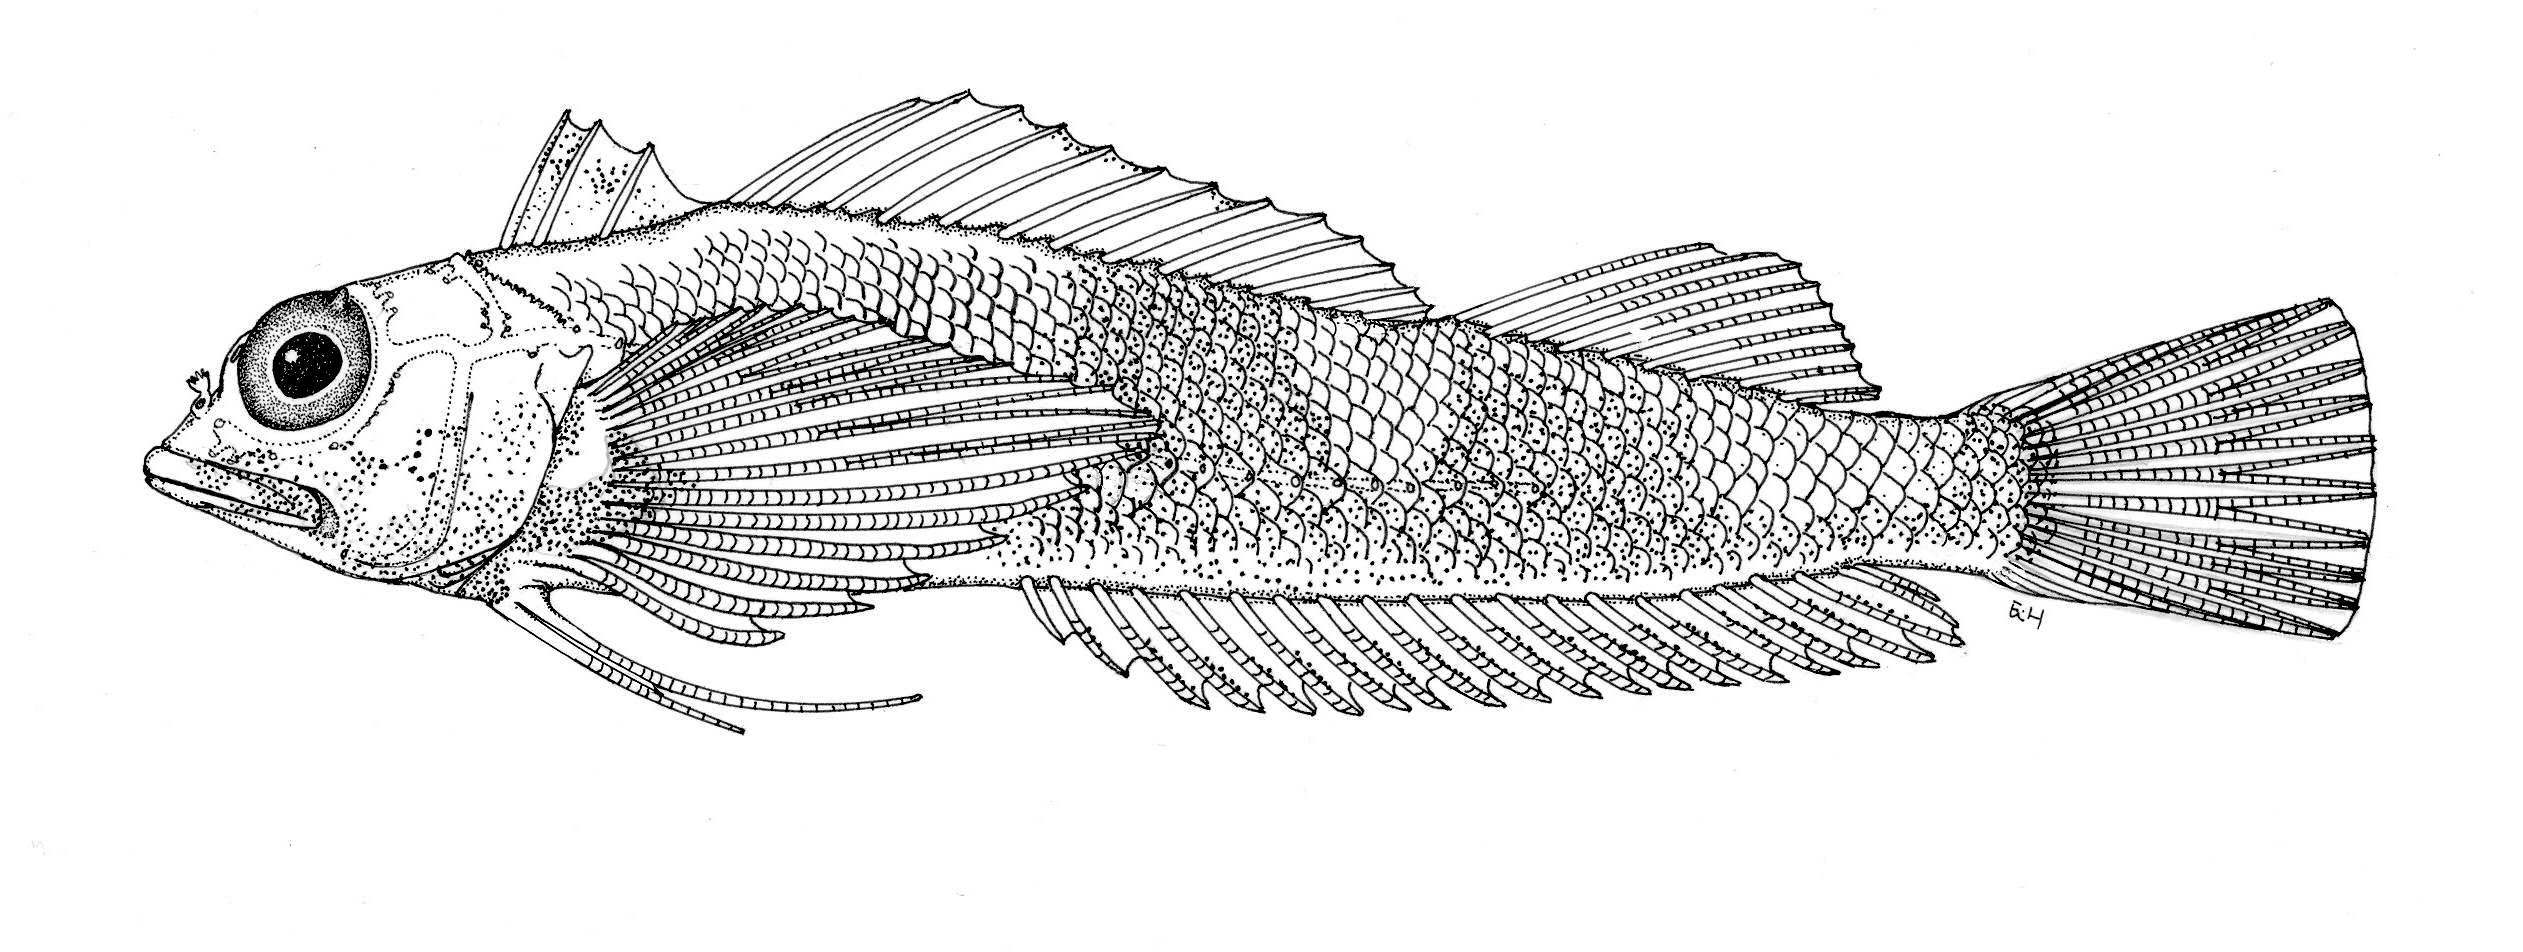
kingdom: Animalia
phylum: Chordata
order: Perciformes
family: Tripterygiidae
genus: Helcogramma
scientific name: Helcogramma shinglensis
